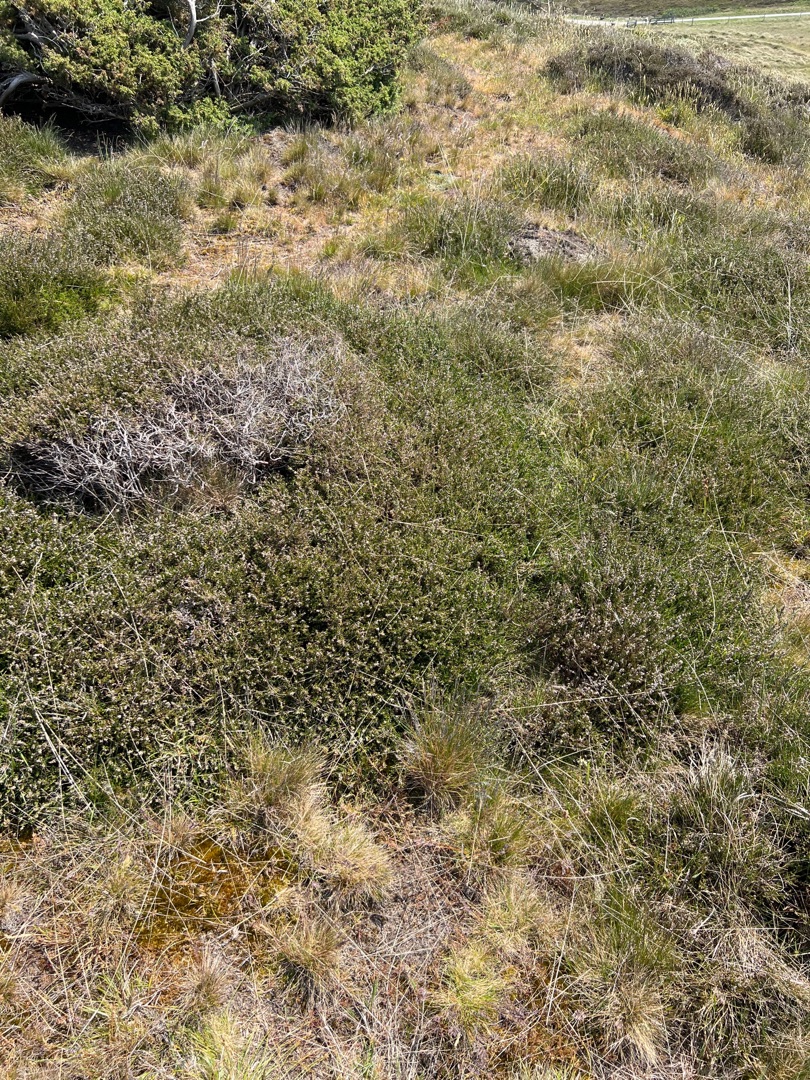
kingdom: Plantae
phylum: Tracheophyta
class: Magnoliopsida
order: Ericales
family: Ericaceae
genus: Calluna
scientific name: Calluna vulgaris
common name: Hedelyng
